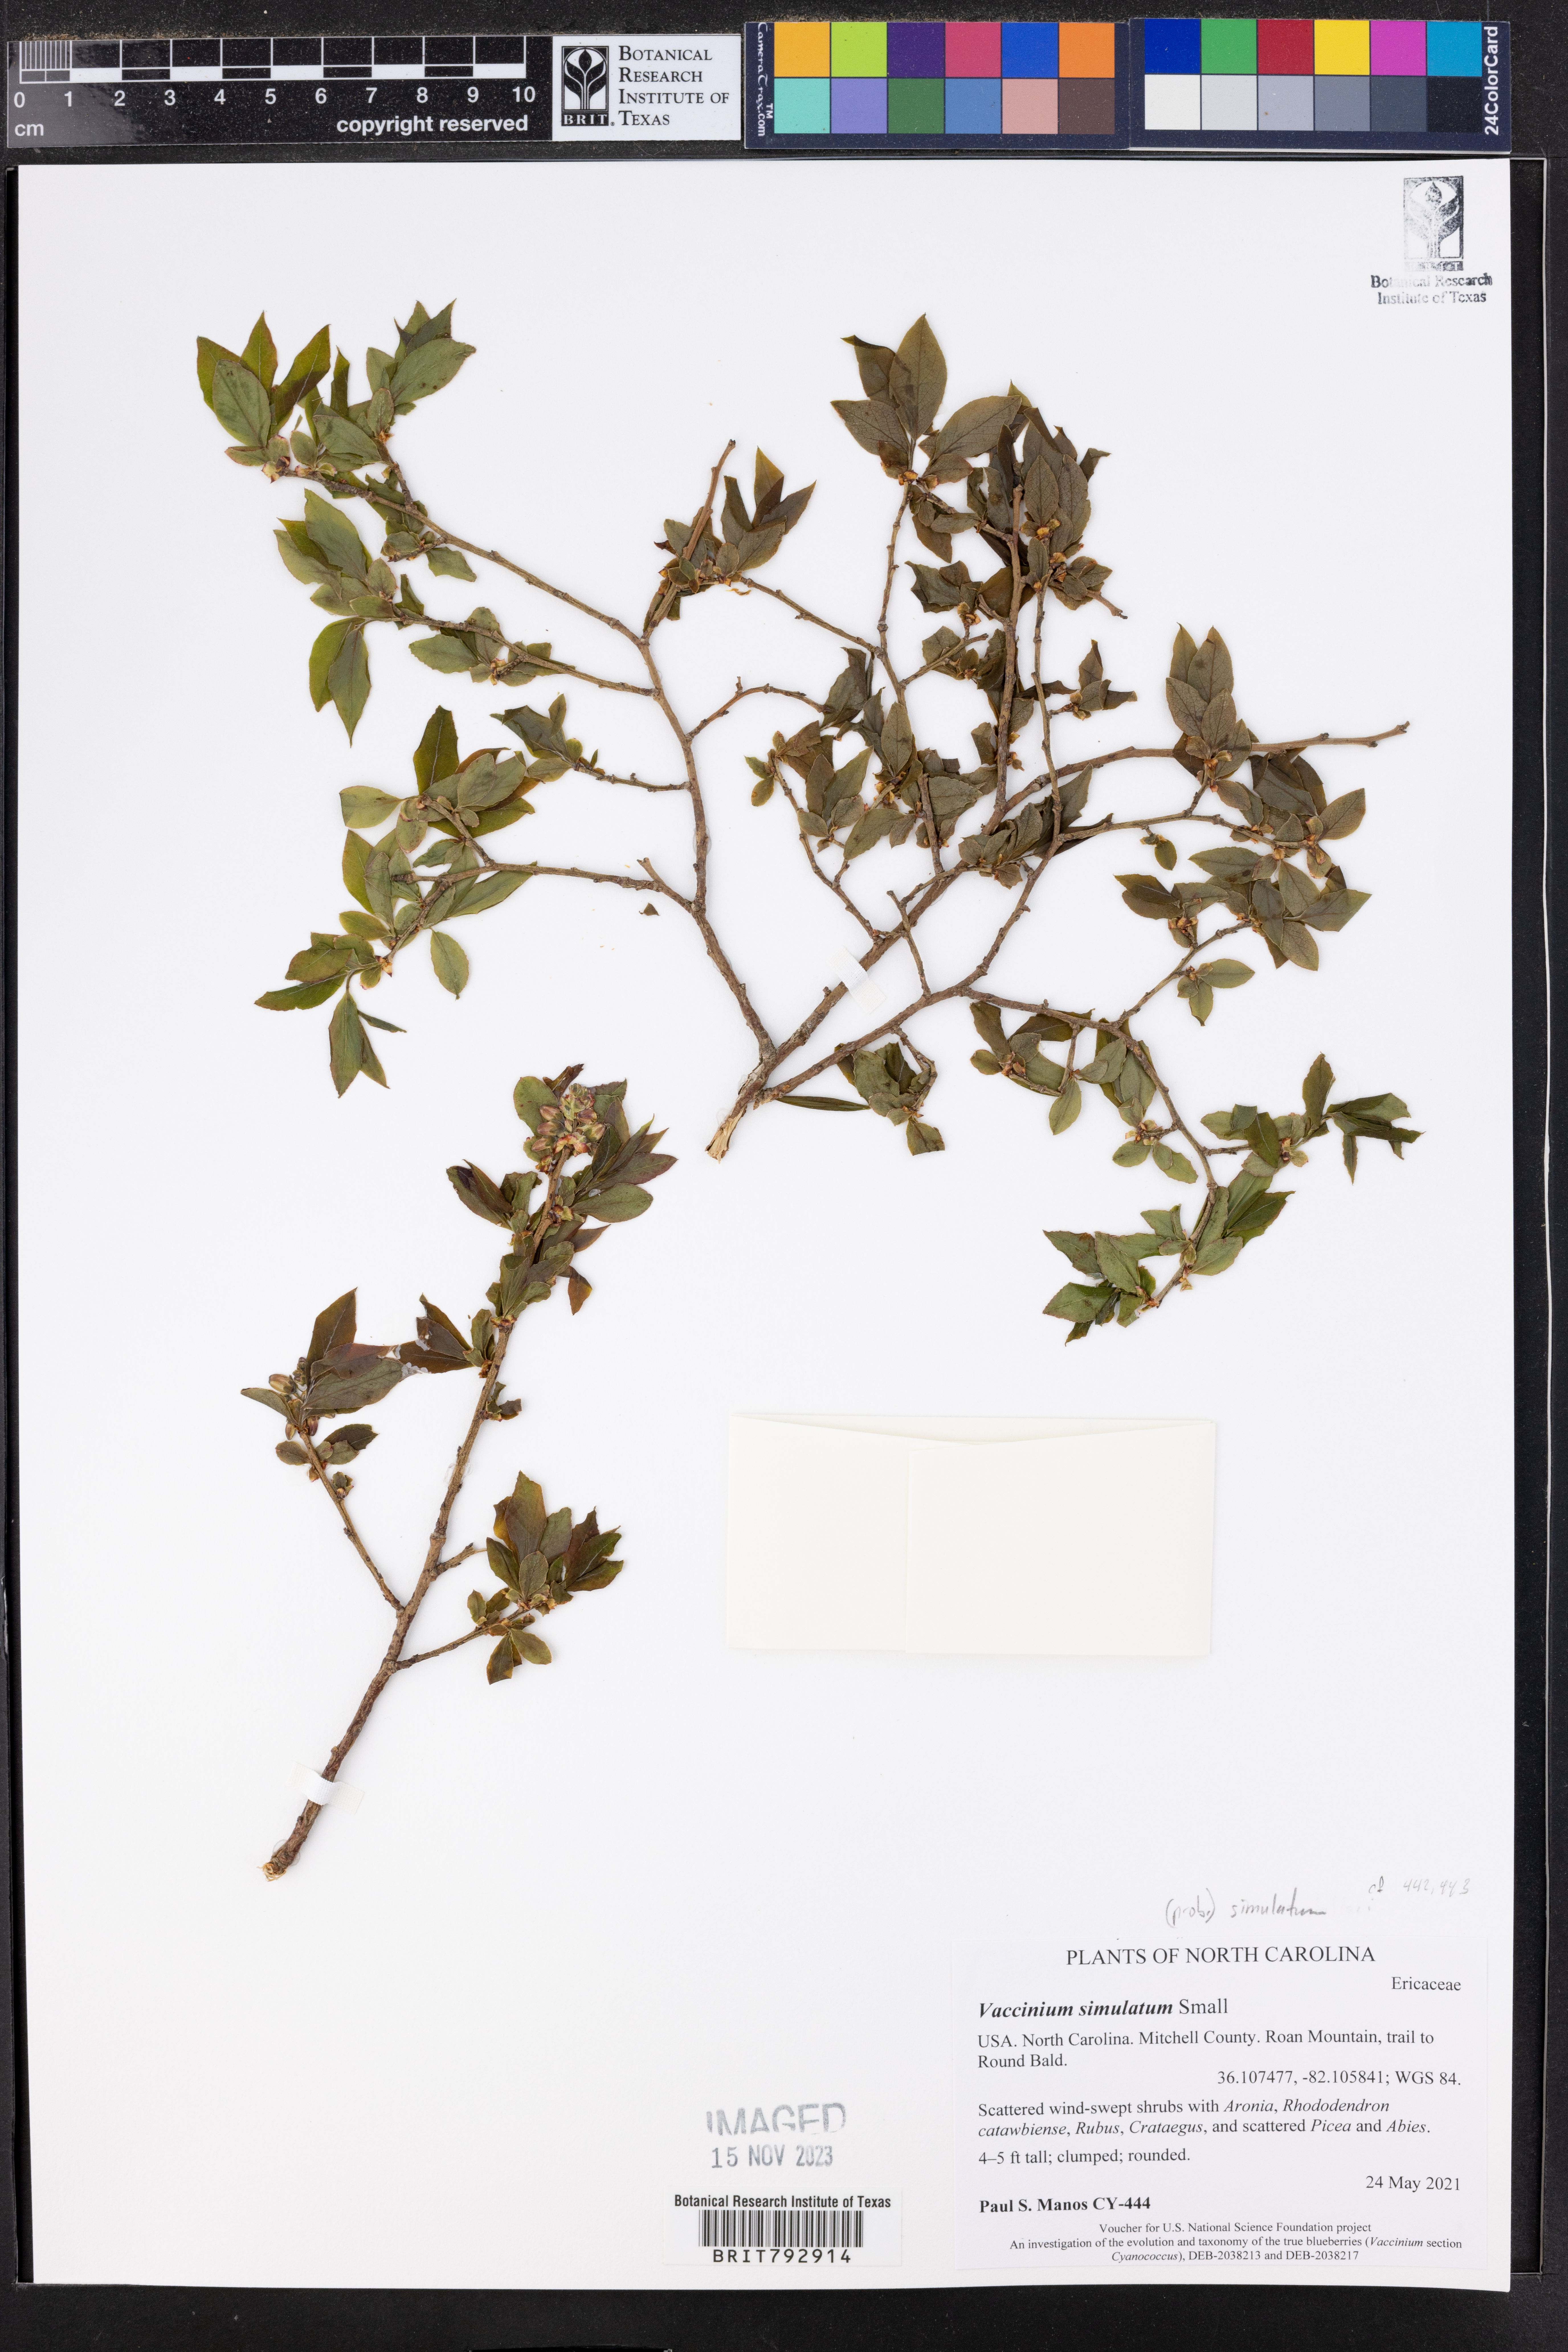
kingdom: Plantae
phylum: Tracheophyta
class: Magnoliopsida
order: Ericales
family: Ericaceae
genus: Vaccinium
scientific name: Vaccinium corymbosum
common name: Blueberry
